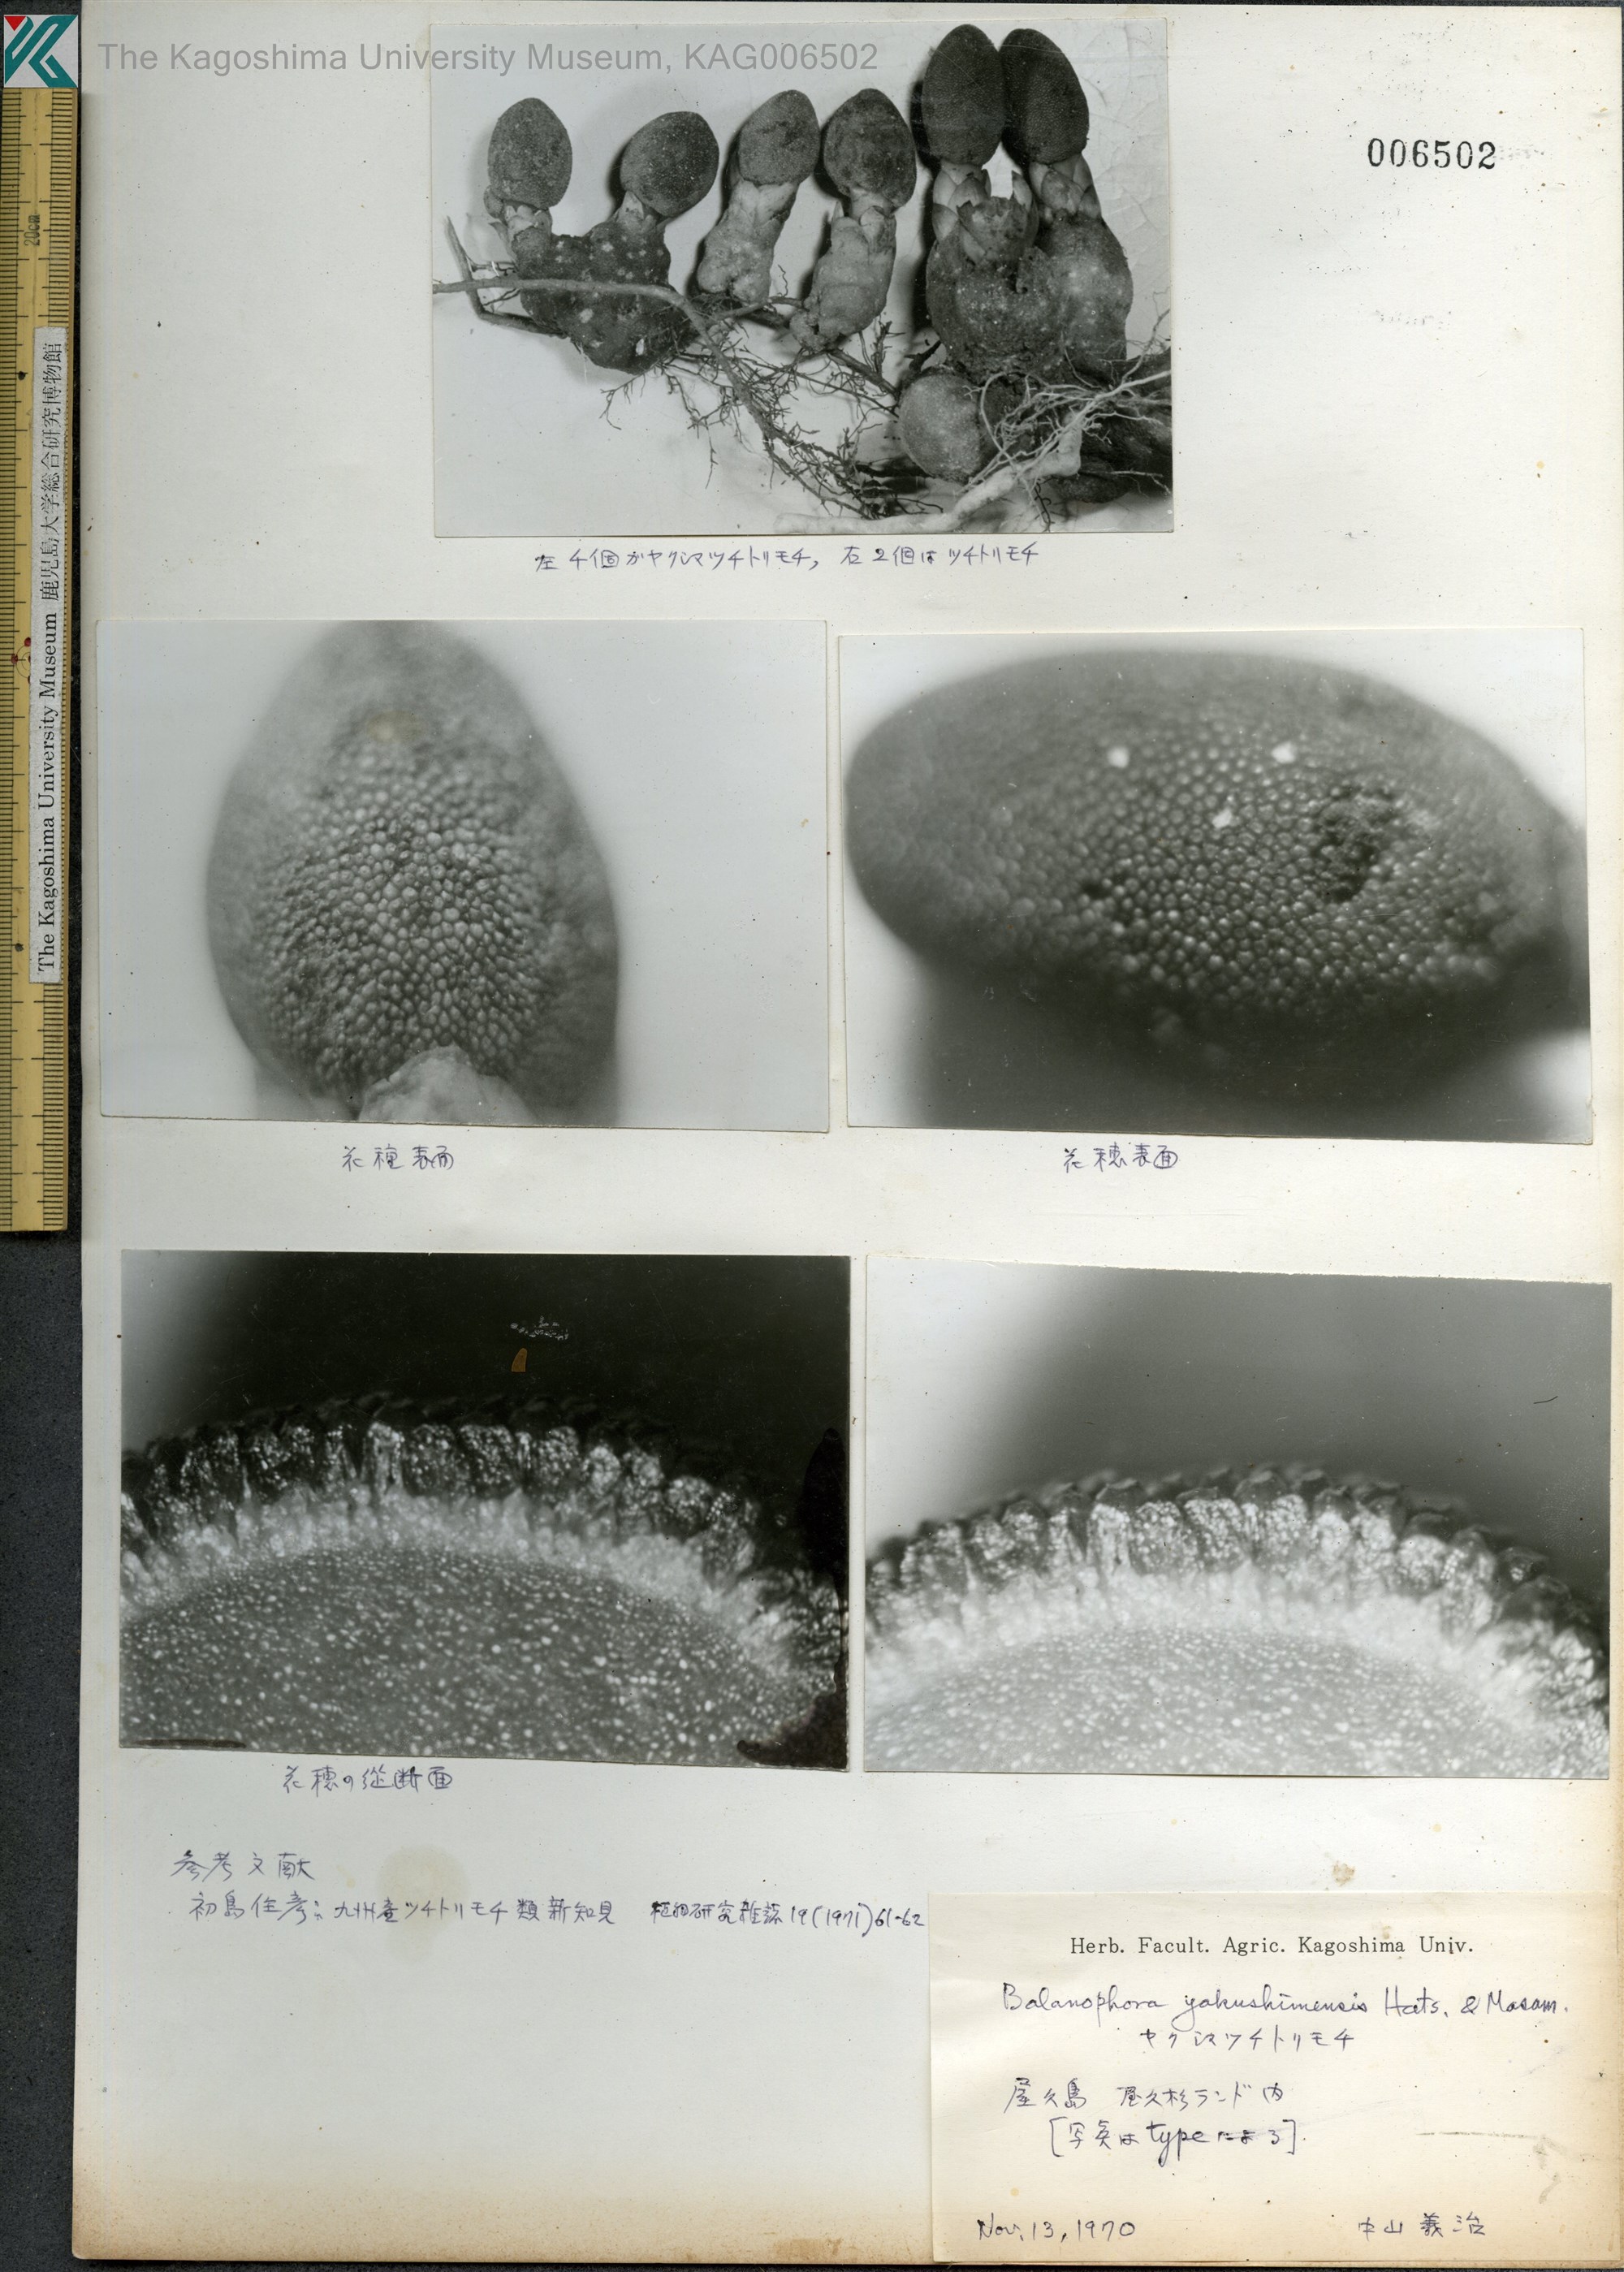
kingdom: Plantae
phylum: Tracheophyta
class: Magnoliopsida
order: Santalales
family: Balanophoraceae
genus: Balanophora
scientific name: Balanophora yakushimensis
